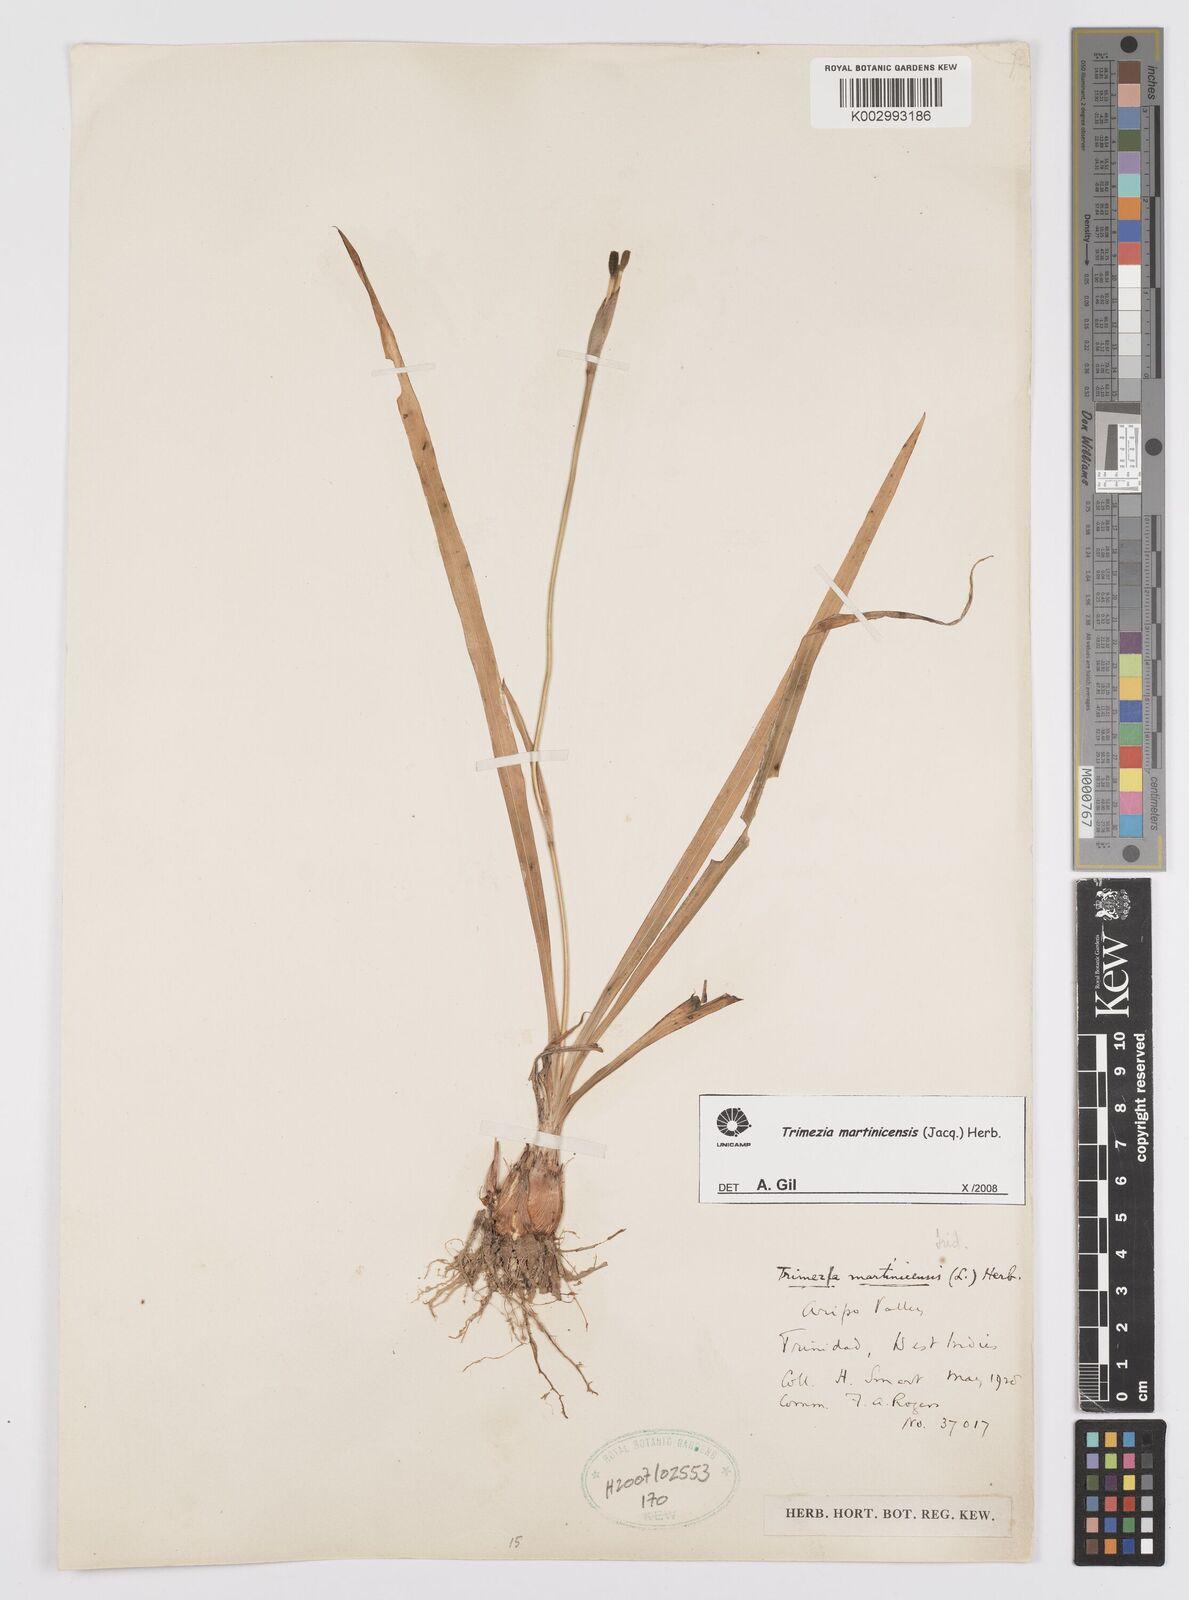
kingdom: Plantae
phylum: Tracheophyta
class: Liliopsida
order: Asparagales
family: Iridaceae
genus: Trimezia
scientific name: Trimezia martinicensis
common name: Martinique trimezia
